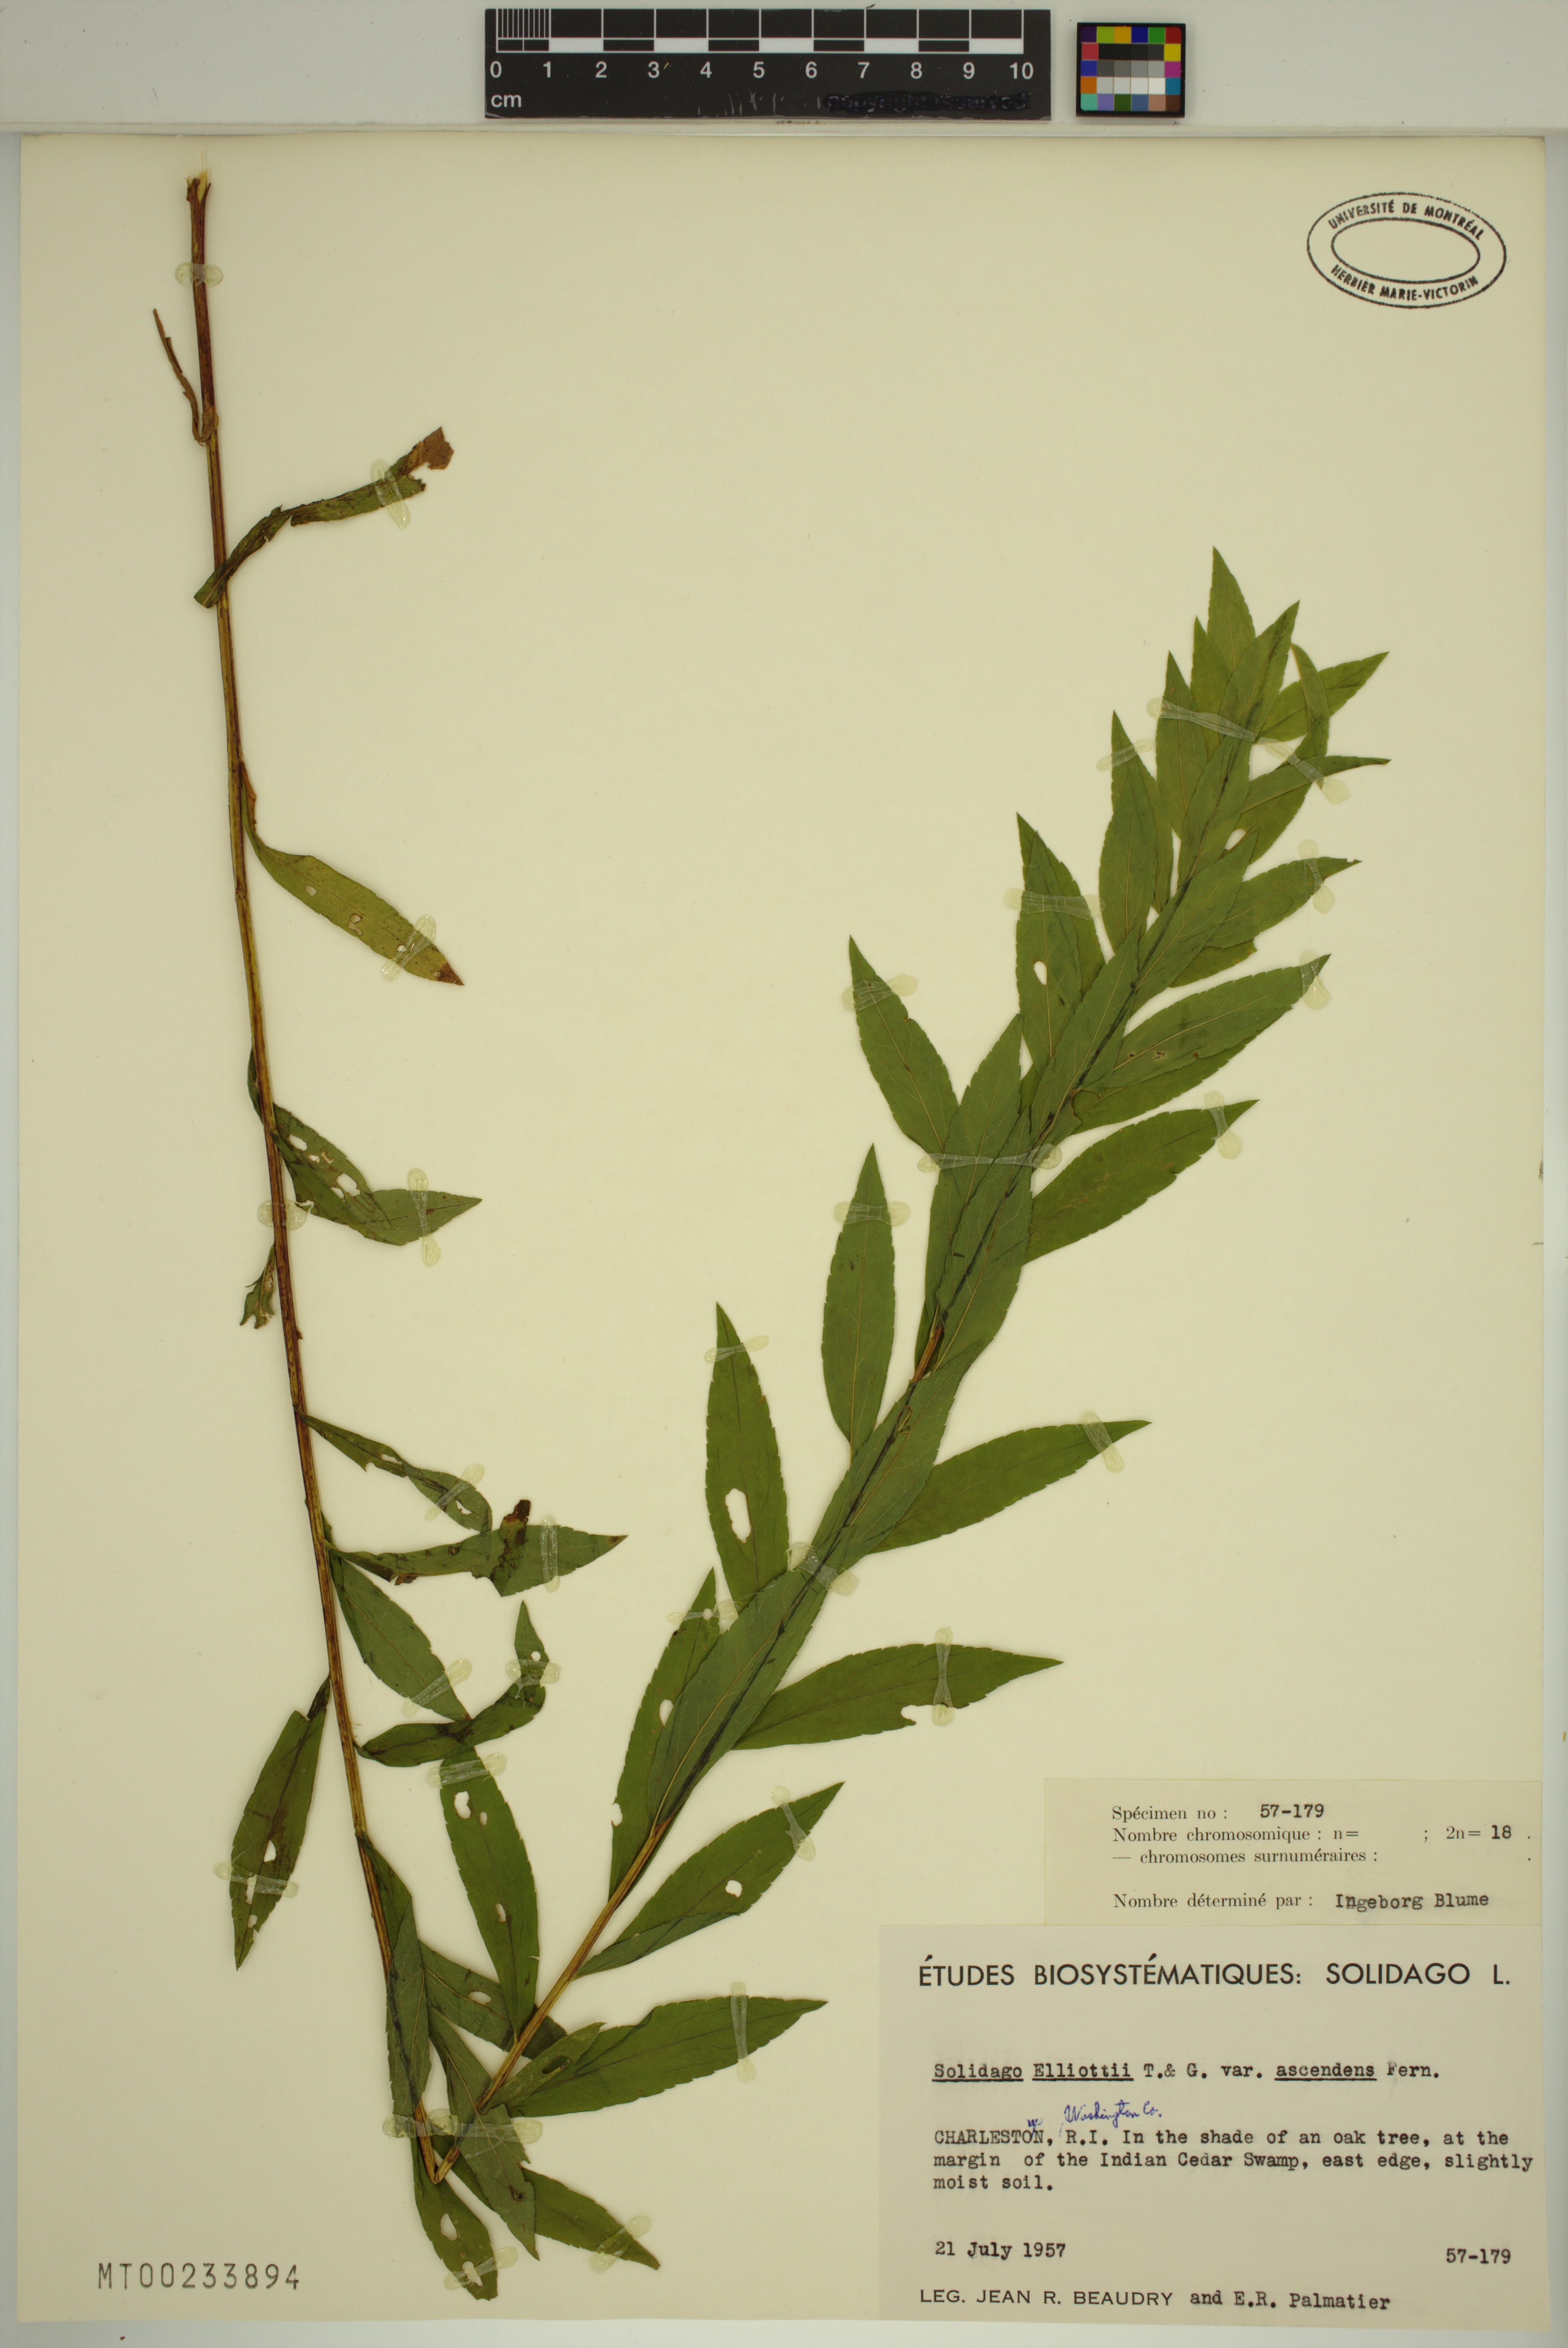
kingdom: Plantae
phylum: Tracheophyta
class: Magnoliopsida
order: Asterales
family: Asteraceae
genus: Solidago
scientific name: Solidago latissimifolia
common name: Elliott's goldenrod
